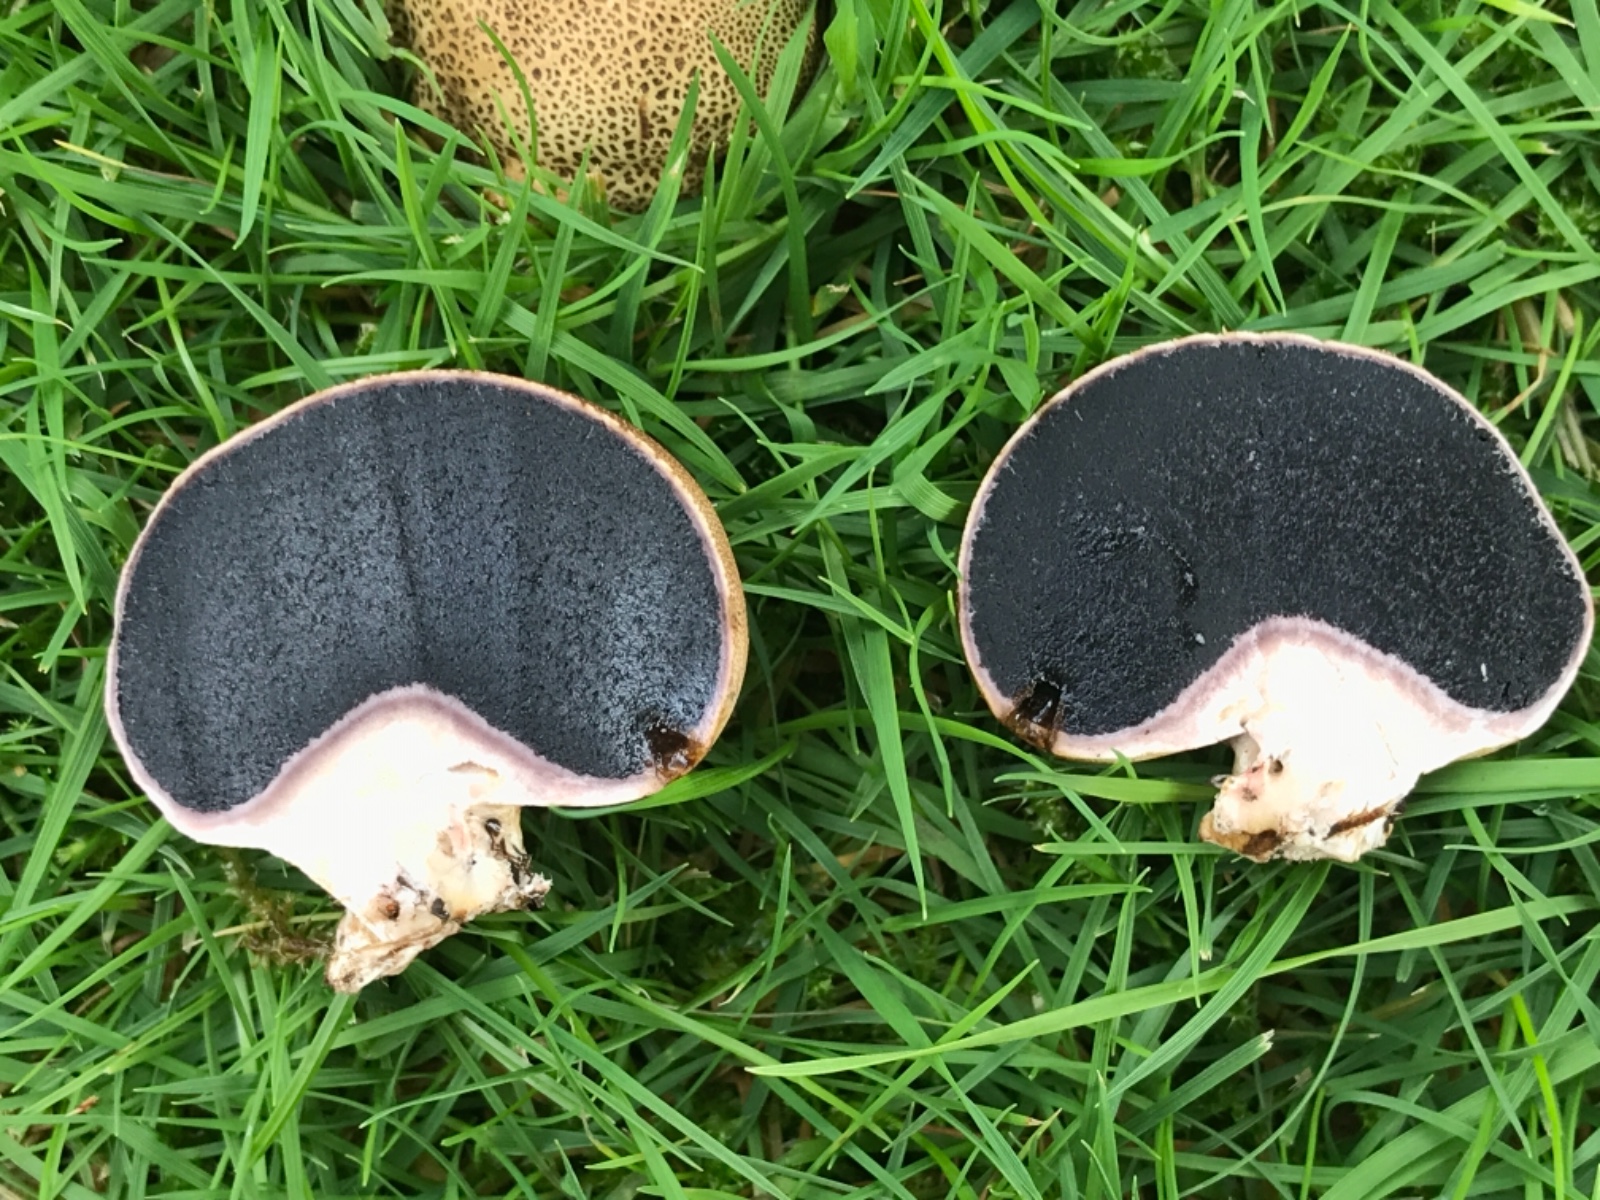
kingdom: Fungi
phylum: Basidiomycota
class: Agaricomycetes
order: Boletales
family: Sclerodermataceae
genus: Scleroderma
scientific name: Scleroderma verrucosum
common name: stilket bruskbold
